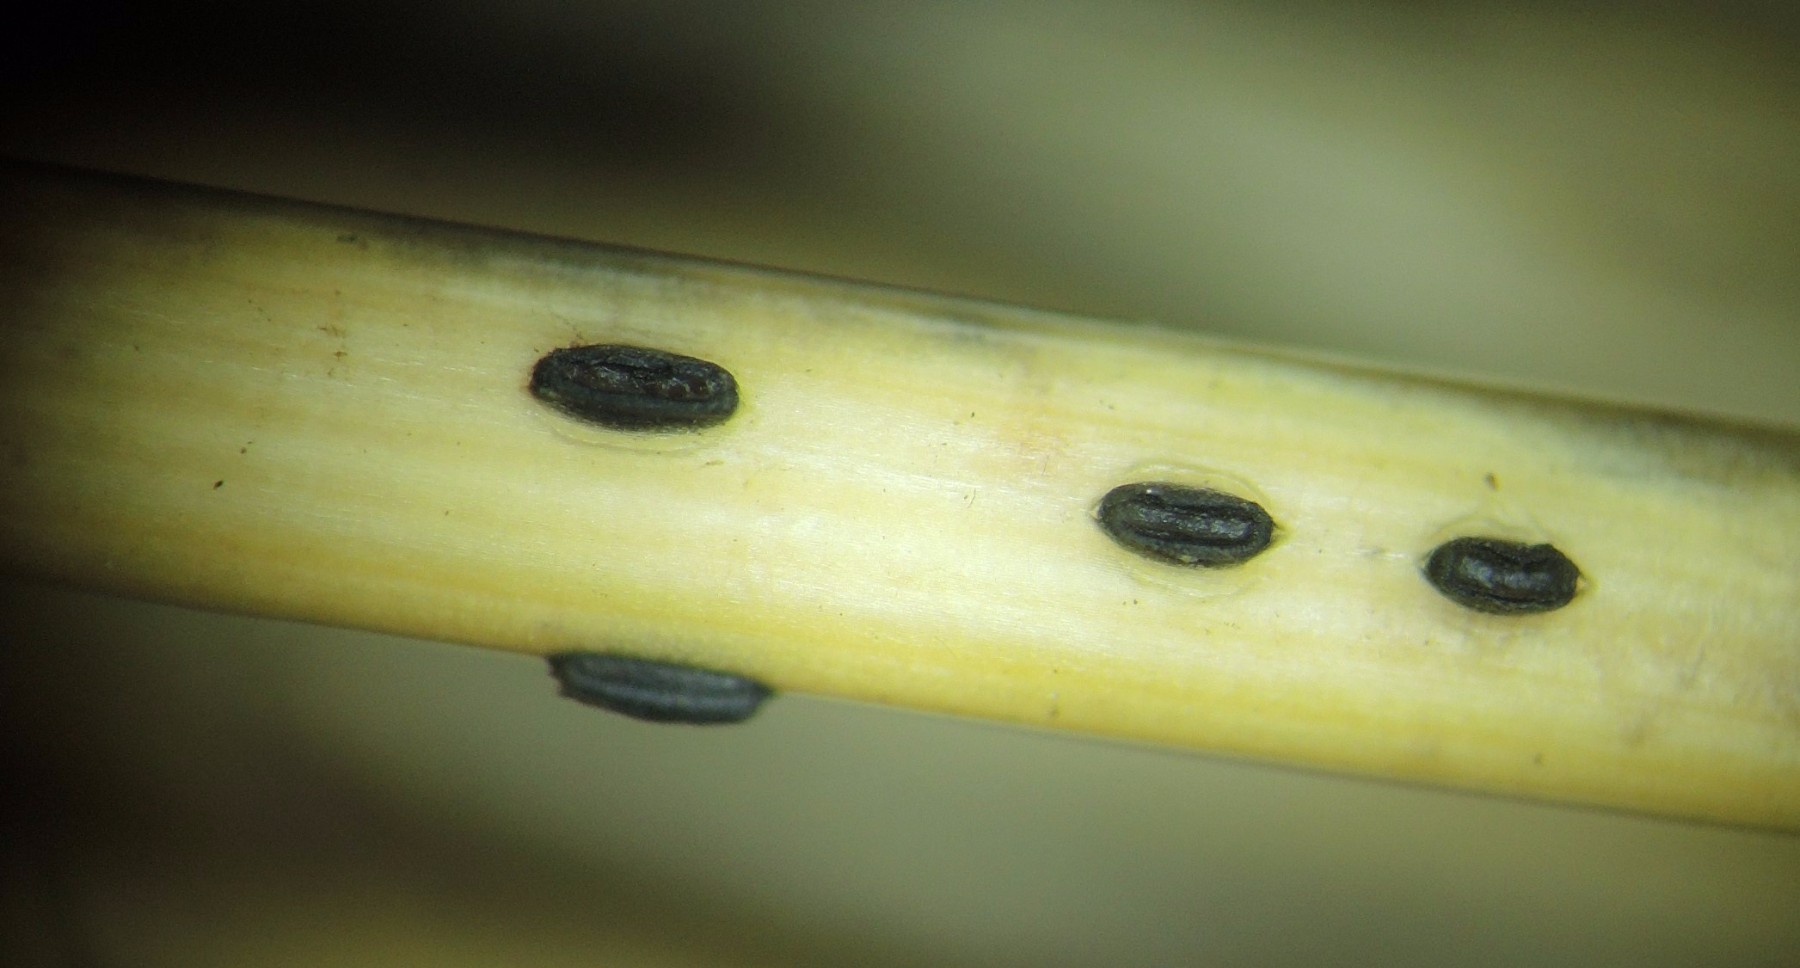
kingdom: Fungi
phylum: Ascomycota
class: Leotiomycetes
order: Rhytismatales
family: Rhytismataceae
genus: Lophodermium
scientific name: Lophodermium culmigenum
